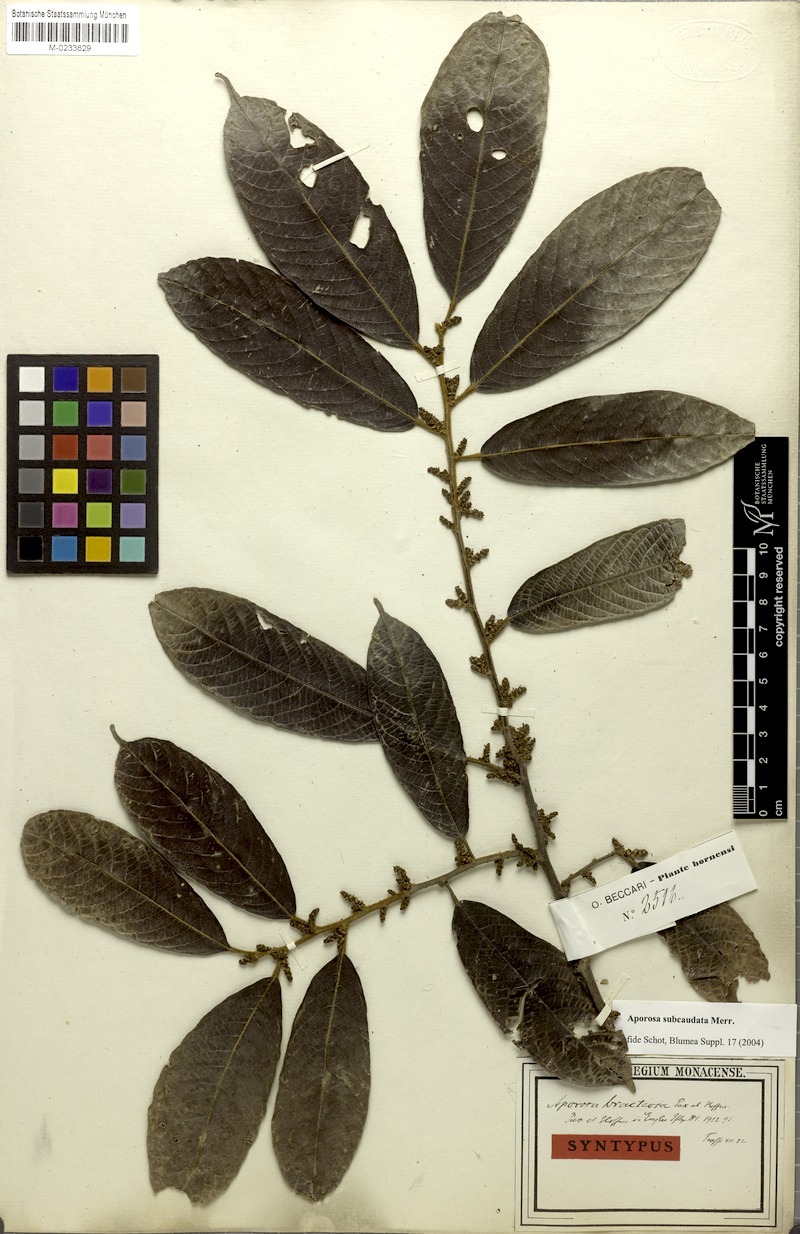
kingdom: Plantae
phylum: Tracheophyta
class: Magnoliopsida
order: Malpighiales
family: Phyllanthaceae
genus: Aporosa
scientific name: Aporosa subcaudata
